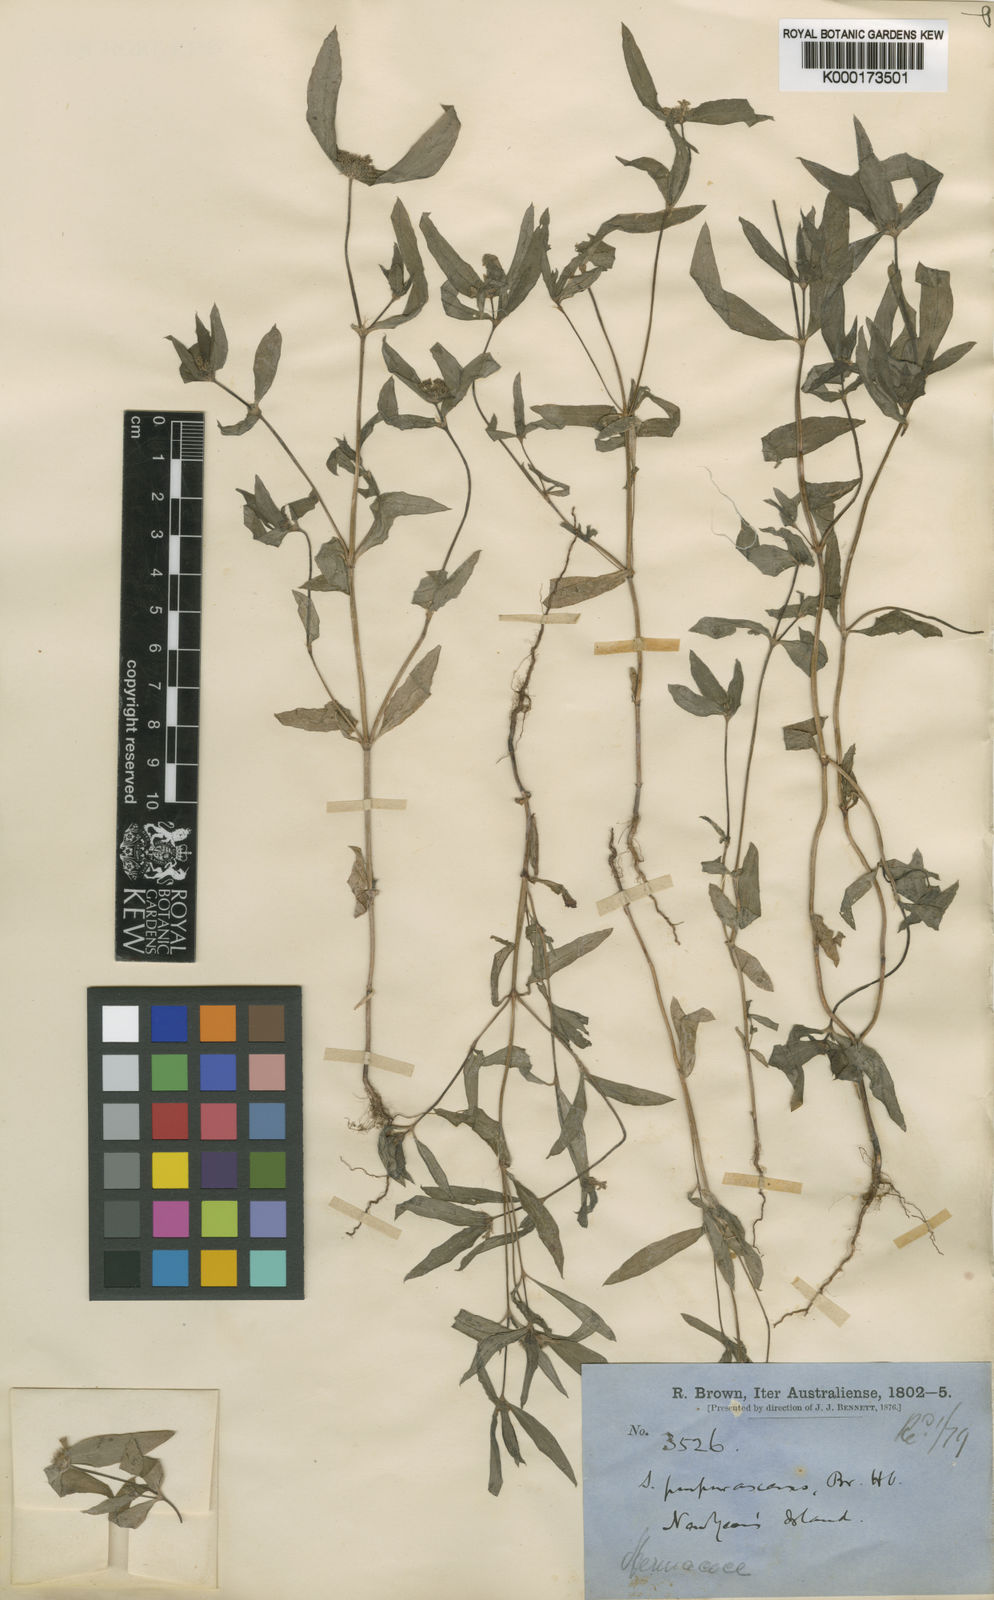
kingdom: Plantae
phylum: Tracheophyta
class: Magnoliopsida
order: Gentianales
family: Rubiaceae
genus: Spermacoce
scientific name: Spermacoce
